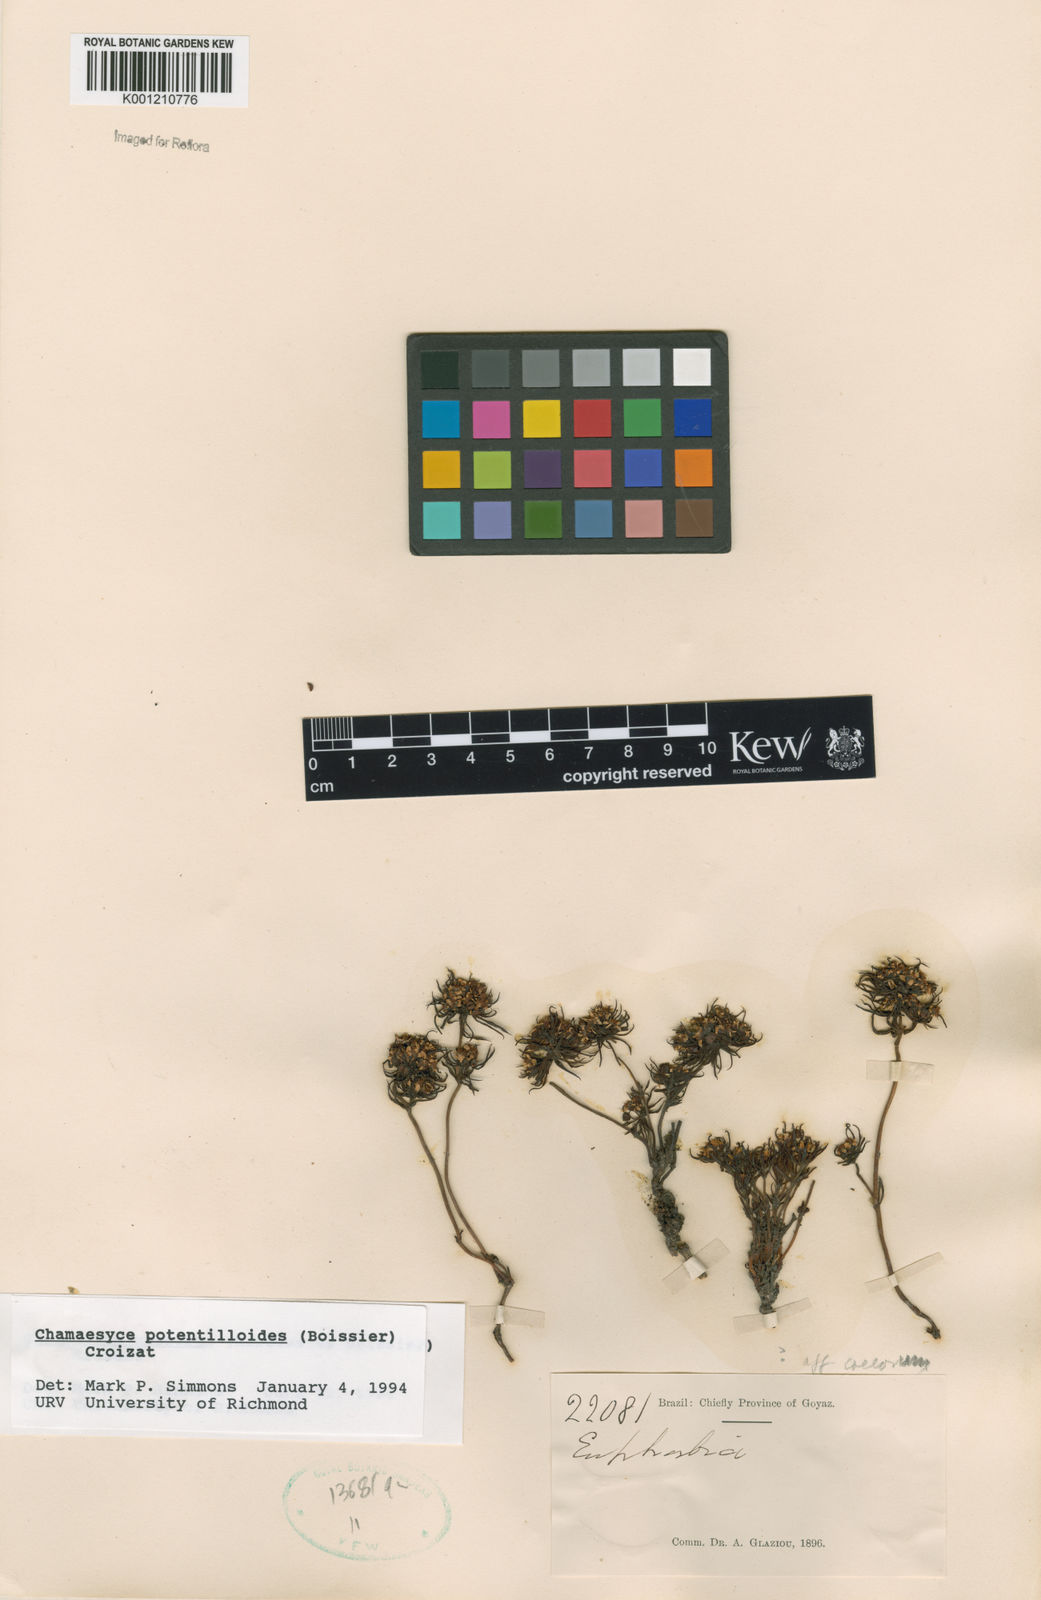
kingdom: Plantae
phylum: Tracheophyta
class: Magnoliopsida
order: Malpighiales
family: Euphorbiaceae
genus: Euphorbia
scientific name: Euphorbia potentilloides
